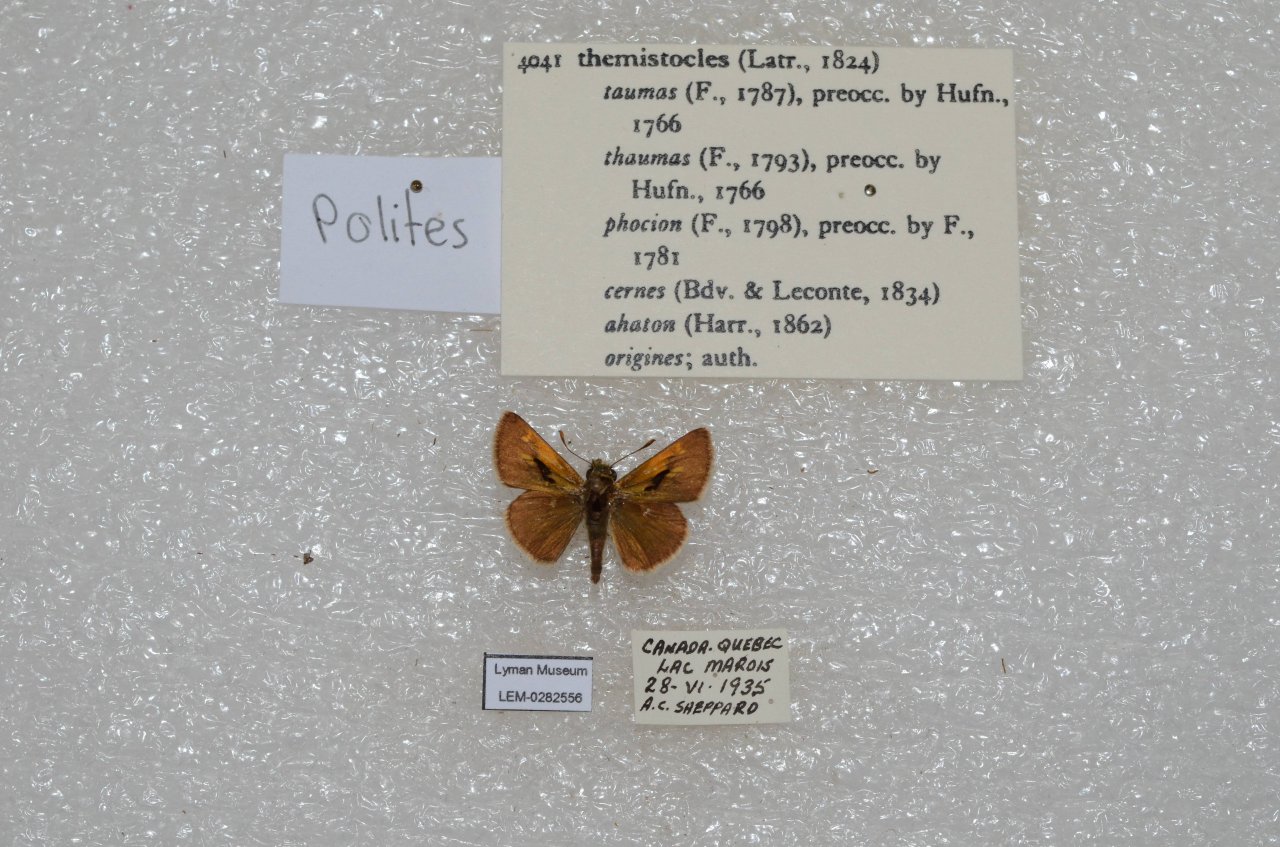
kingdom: Animalia
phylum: Arthropoda
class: Insecta
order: Lepidoptera
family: Hesperiidae
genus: Polites
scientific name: Polites themistocles
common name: Tawny-edged Skipper
